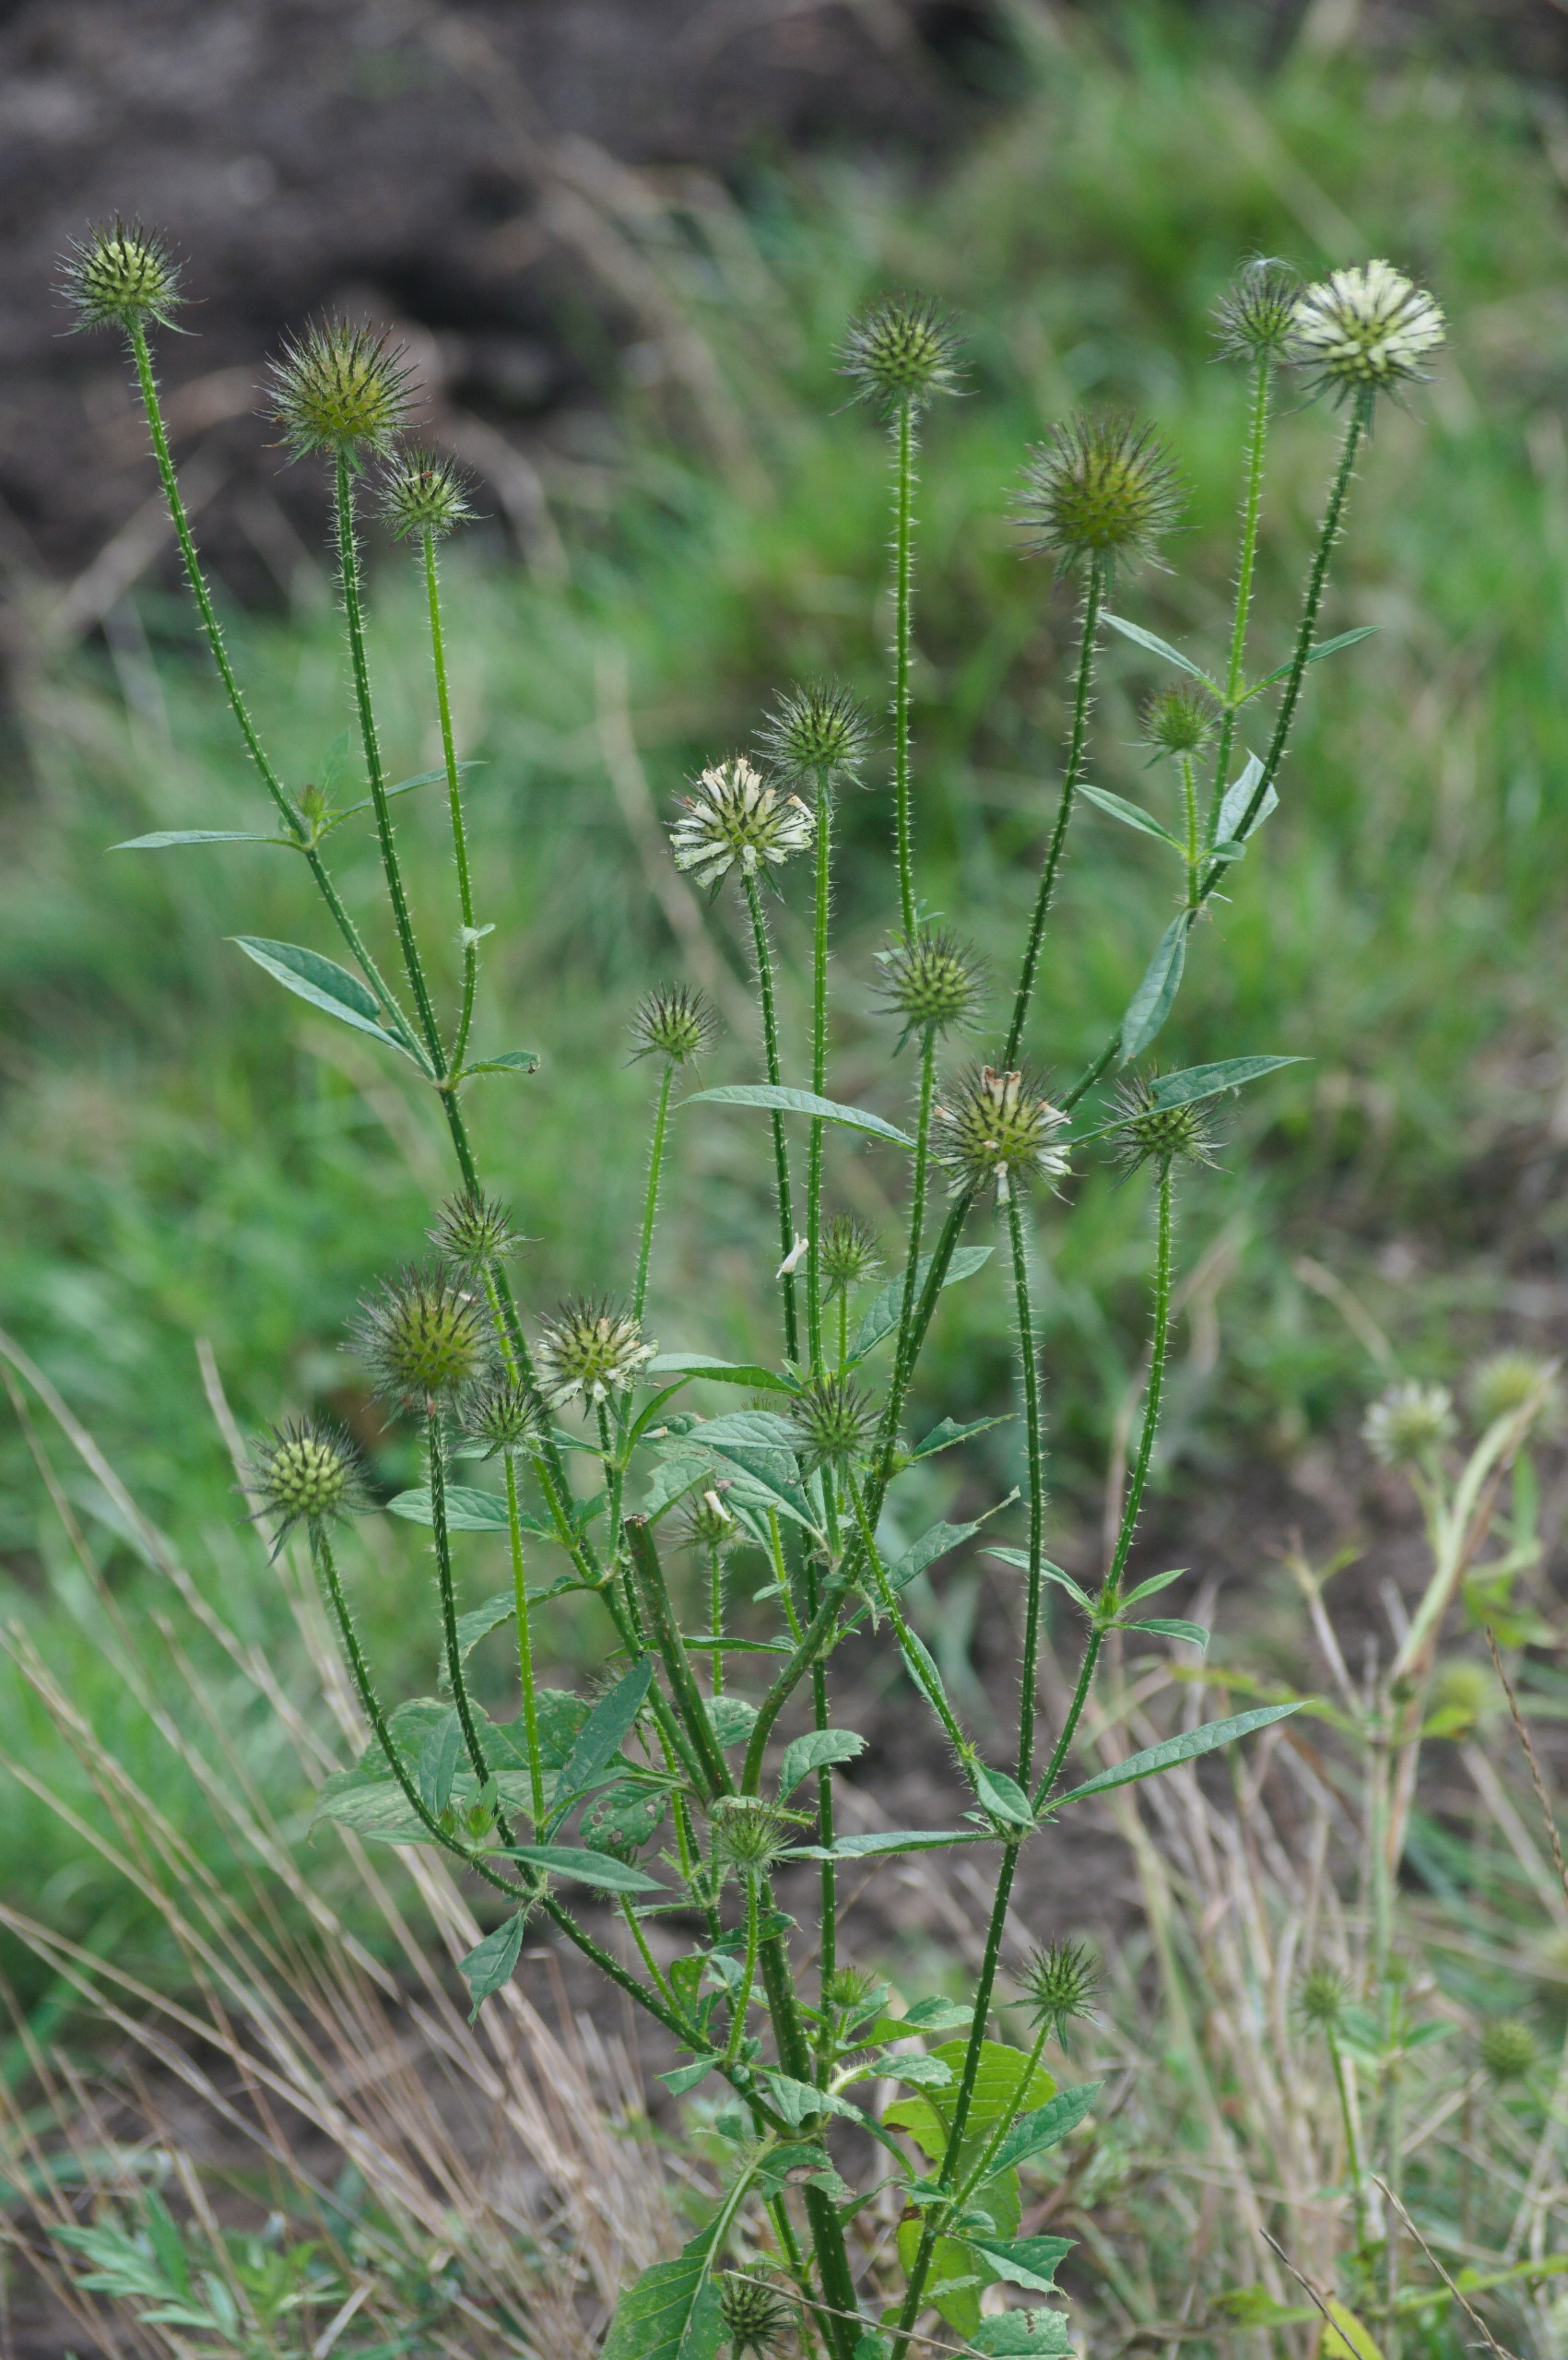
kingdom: Plantae
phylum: Tracheophyta
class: Magnoliopsida
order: Dipsacales
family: Caprifoliaceae
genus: Dipsacus
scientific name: Dipsacus strigosus
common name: Pindsvin-kartebolle
